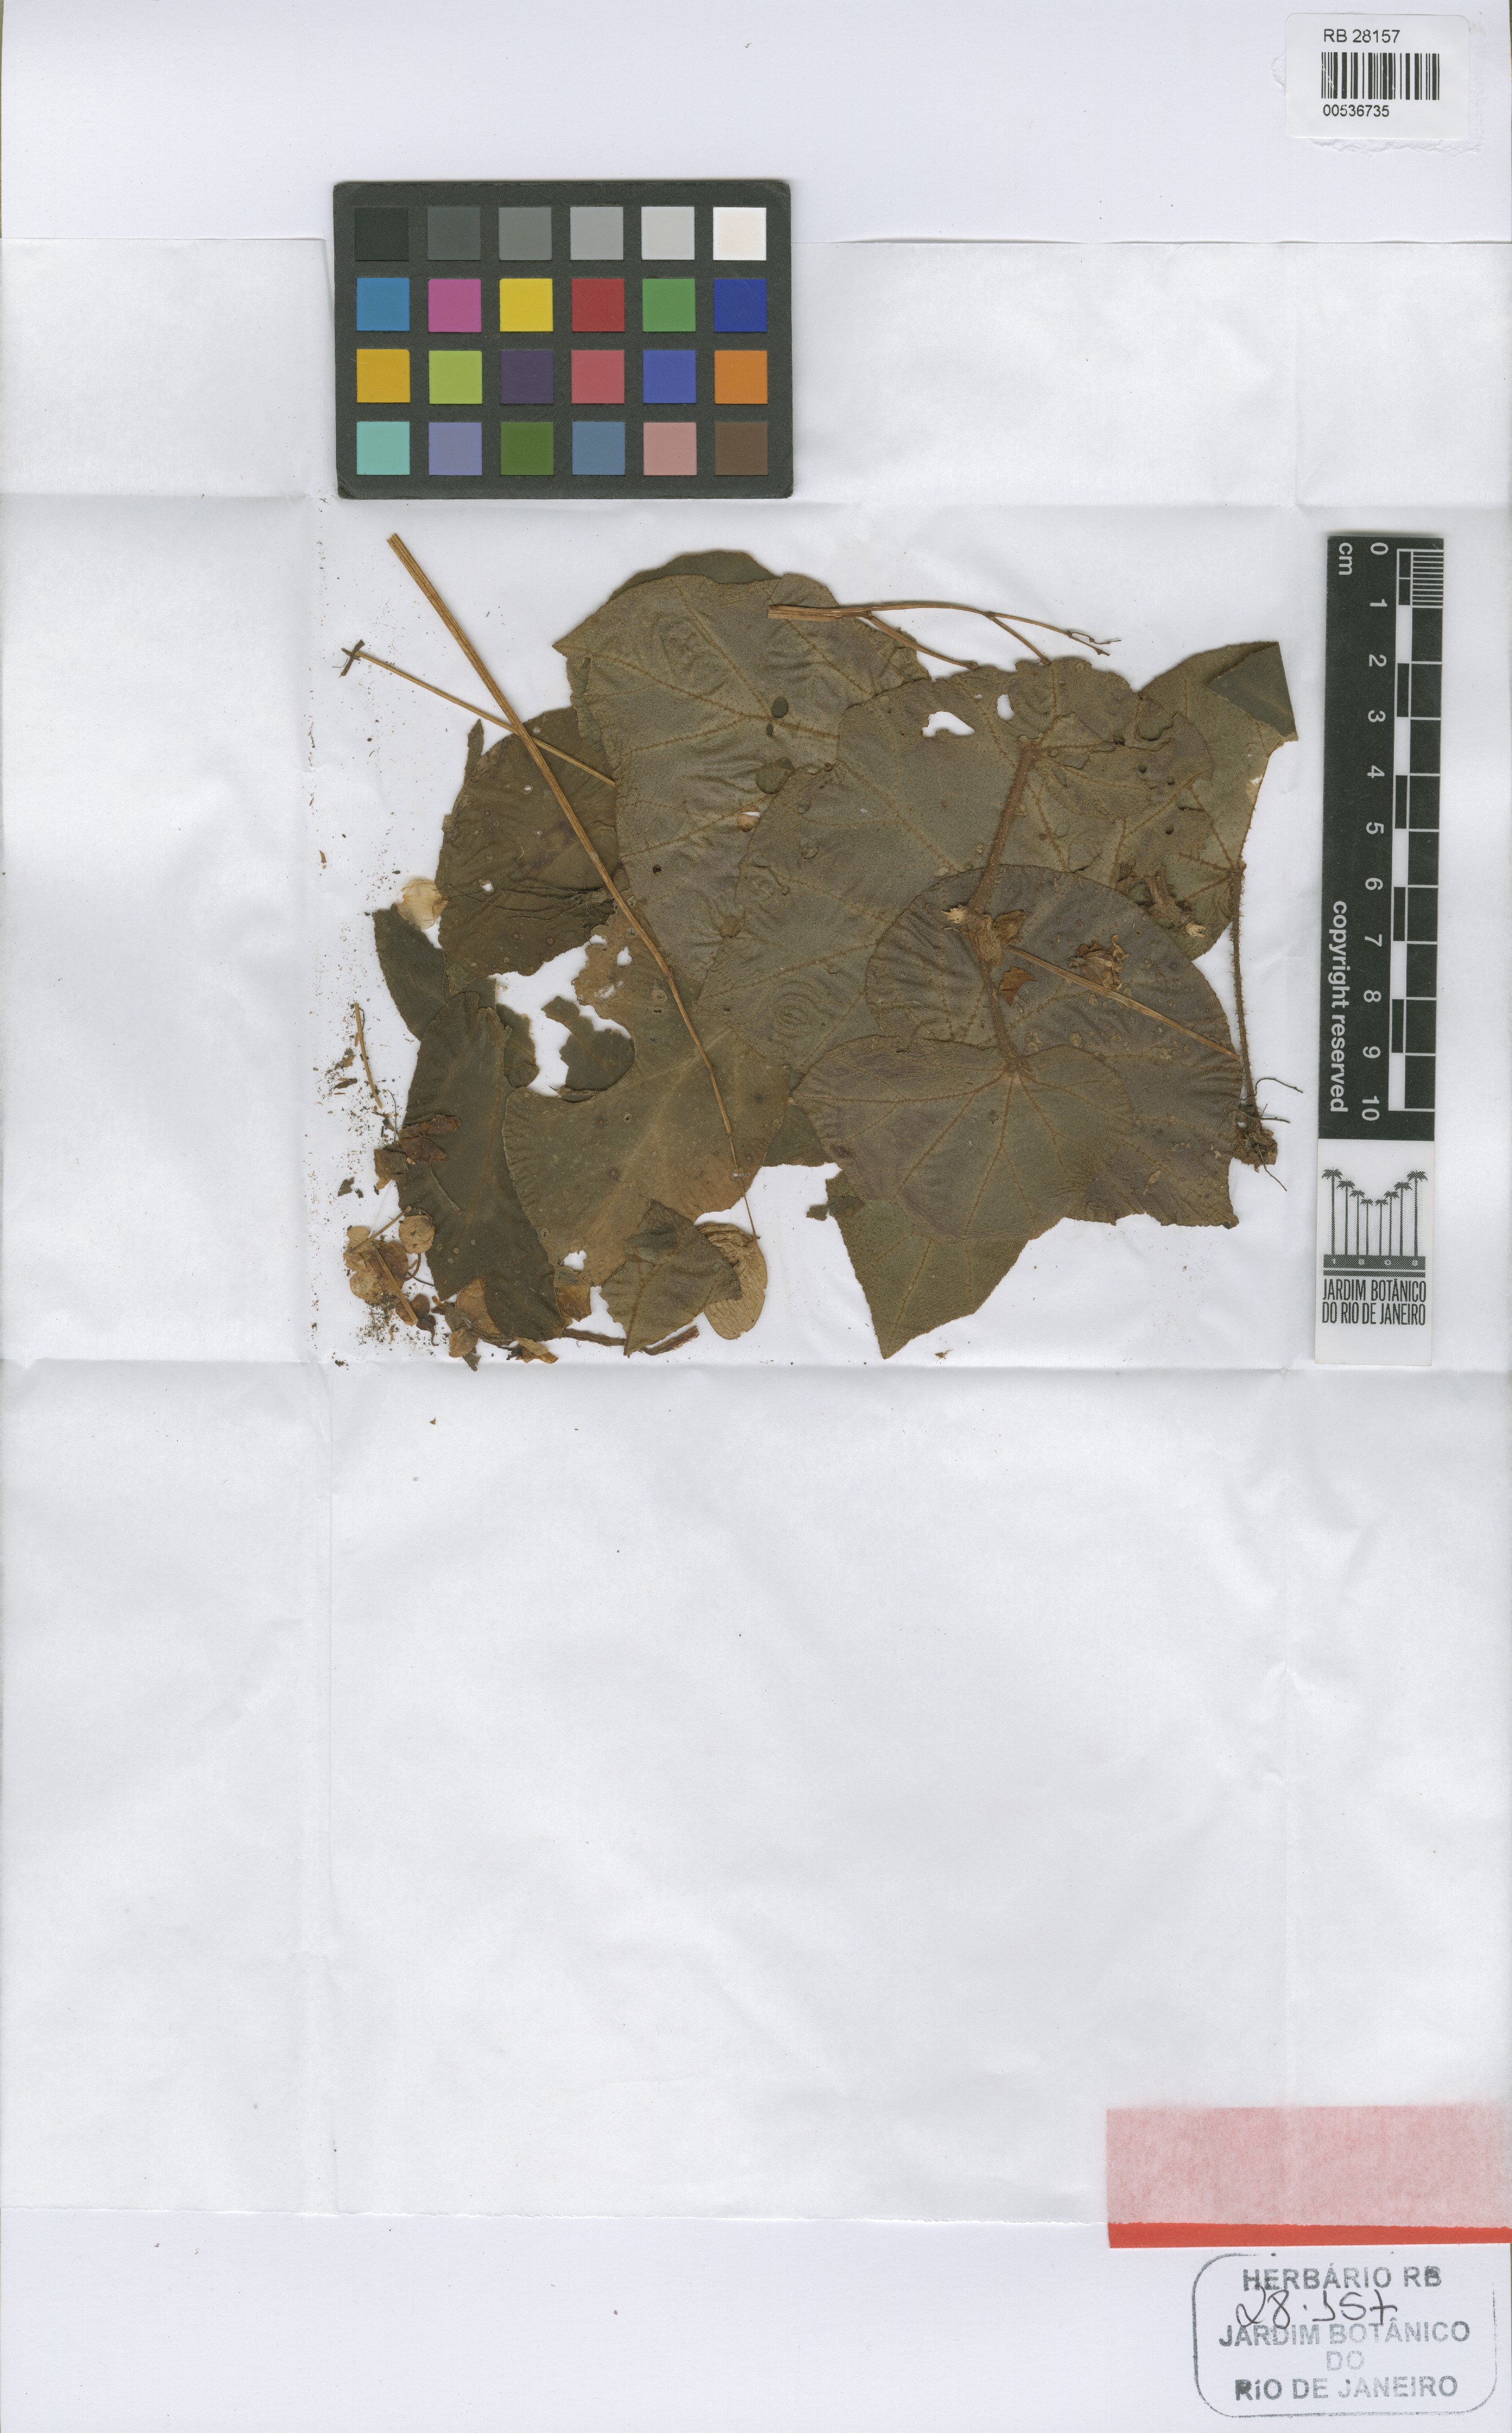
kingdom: Plantae
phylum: Tracheophyta
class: Magnoliopsida
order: Cucurbitales
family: Begoniaceae
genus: Begonia
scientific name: Begonia olsoniae
